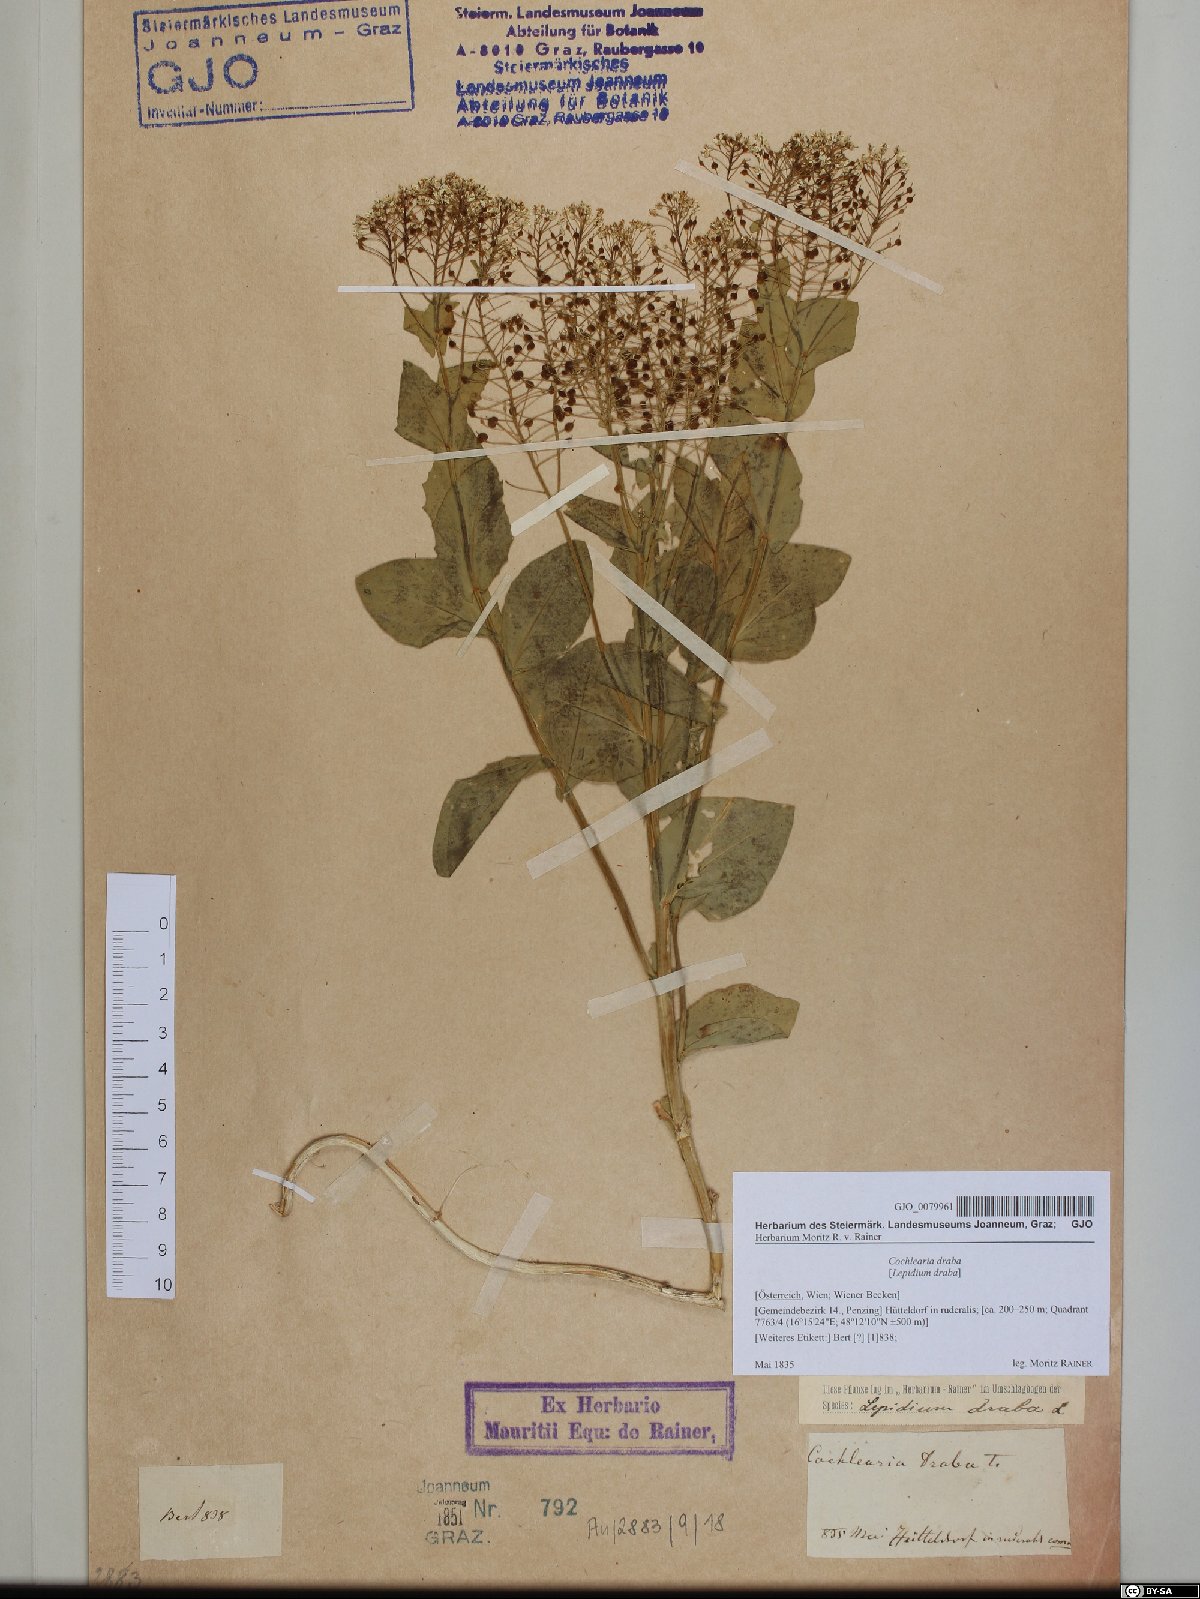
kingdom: Plantae
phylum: Tracheophyta
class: Magnoliopsida
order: Brassicales
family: Brassicaceae
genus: Lepidium
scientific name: Lepidium draba
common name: Hoary cress
